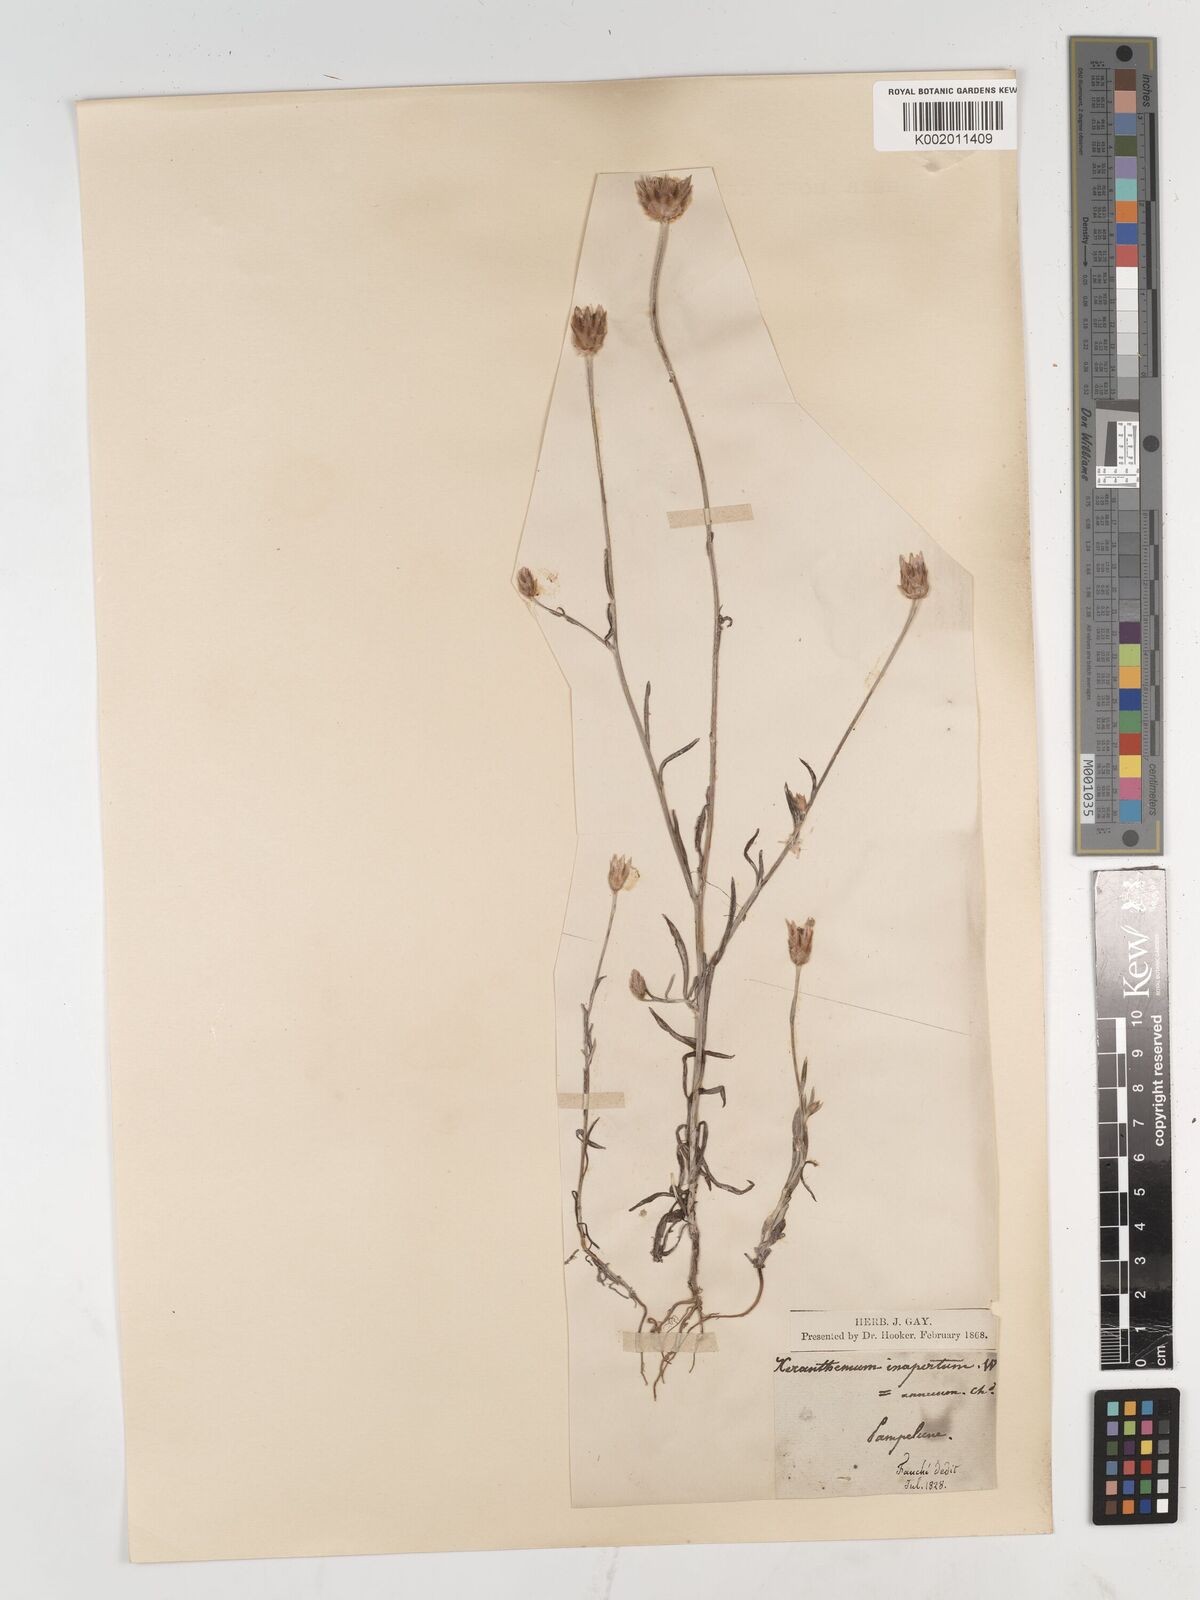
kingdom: Plantae
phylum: Tracheophyta
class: Magnoliopsida
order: Asterales
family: Asteraceae
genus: Xeranthemum
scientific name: Xeranthemum inapertum
